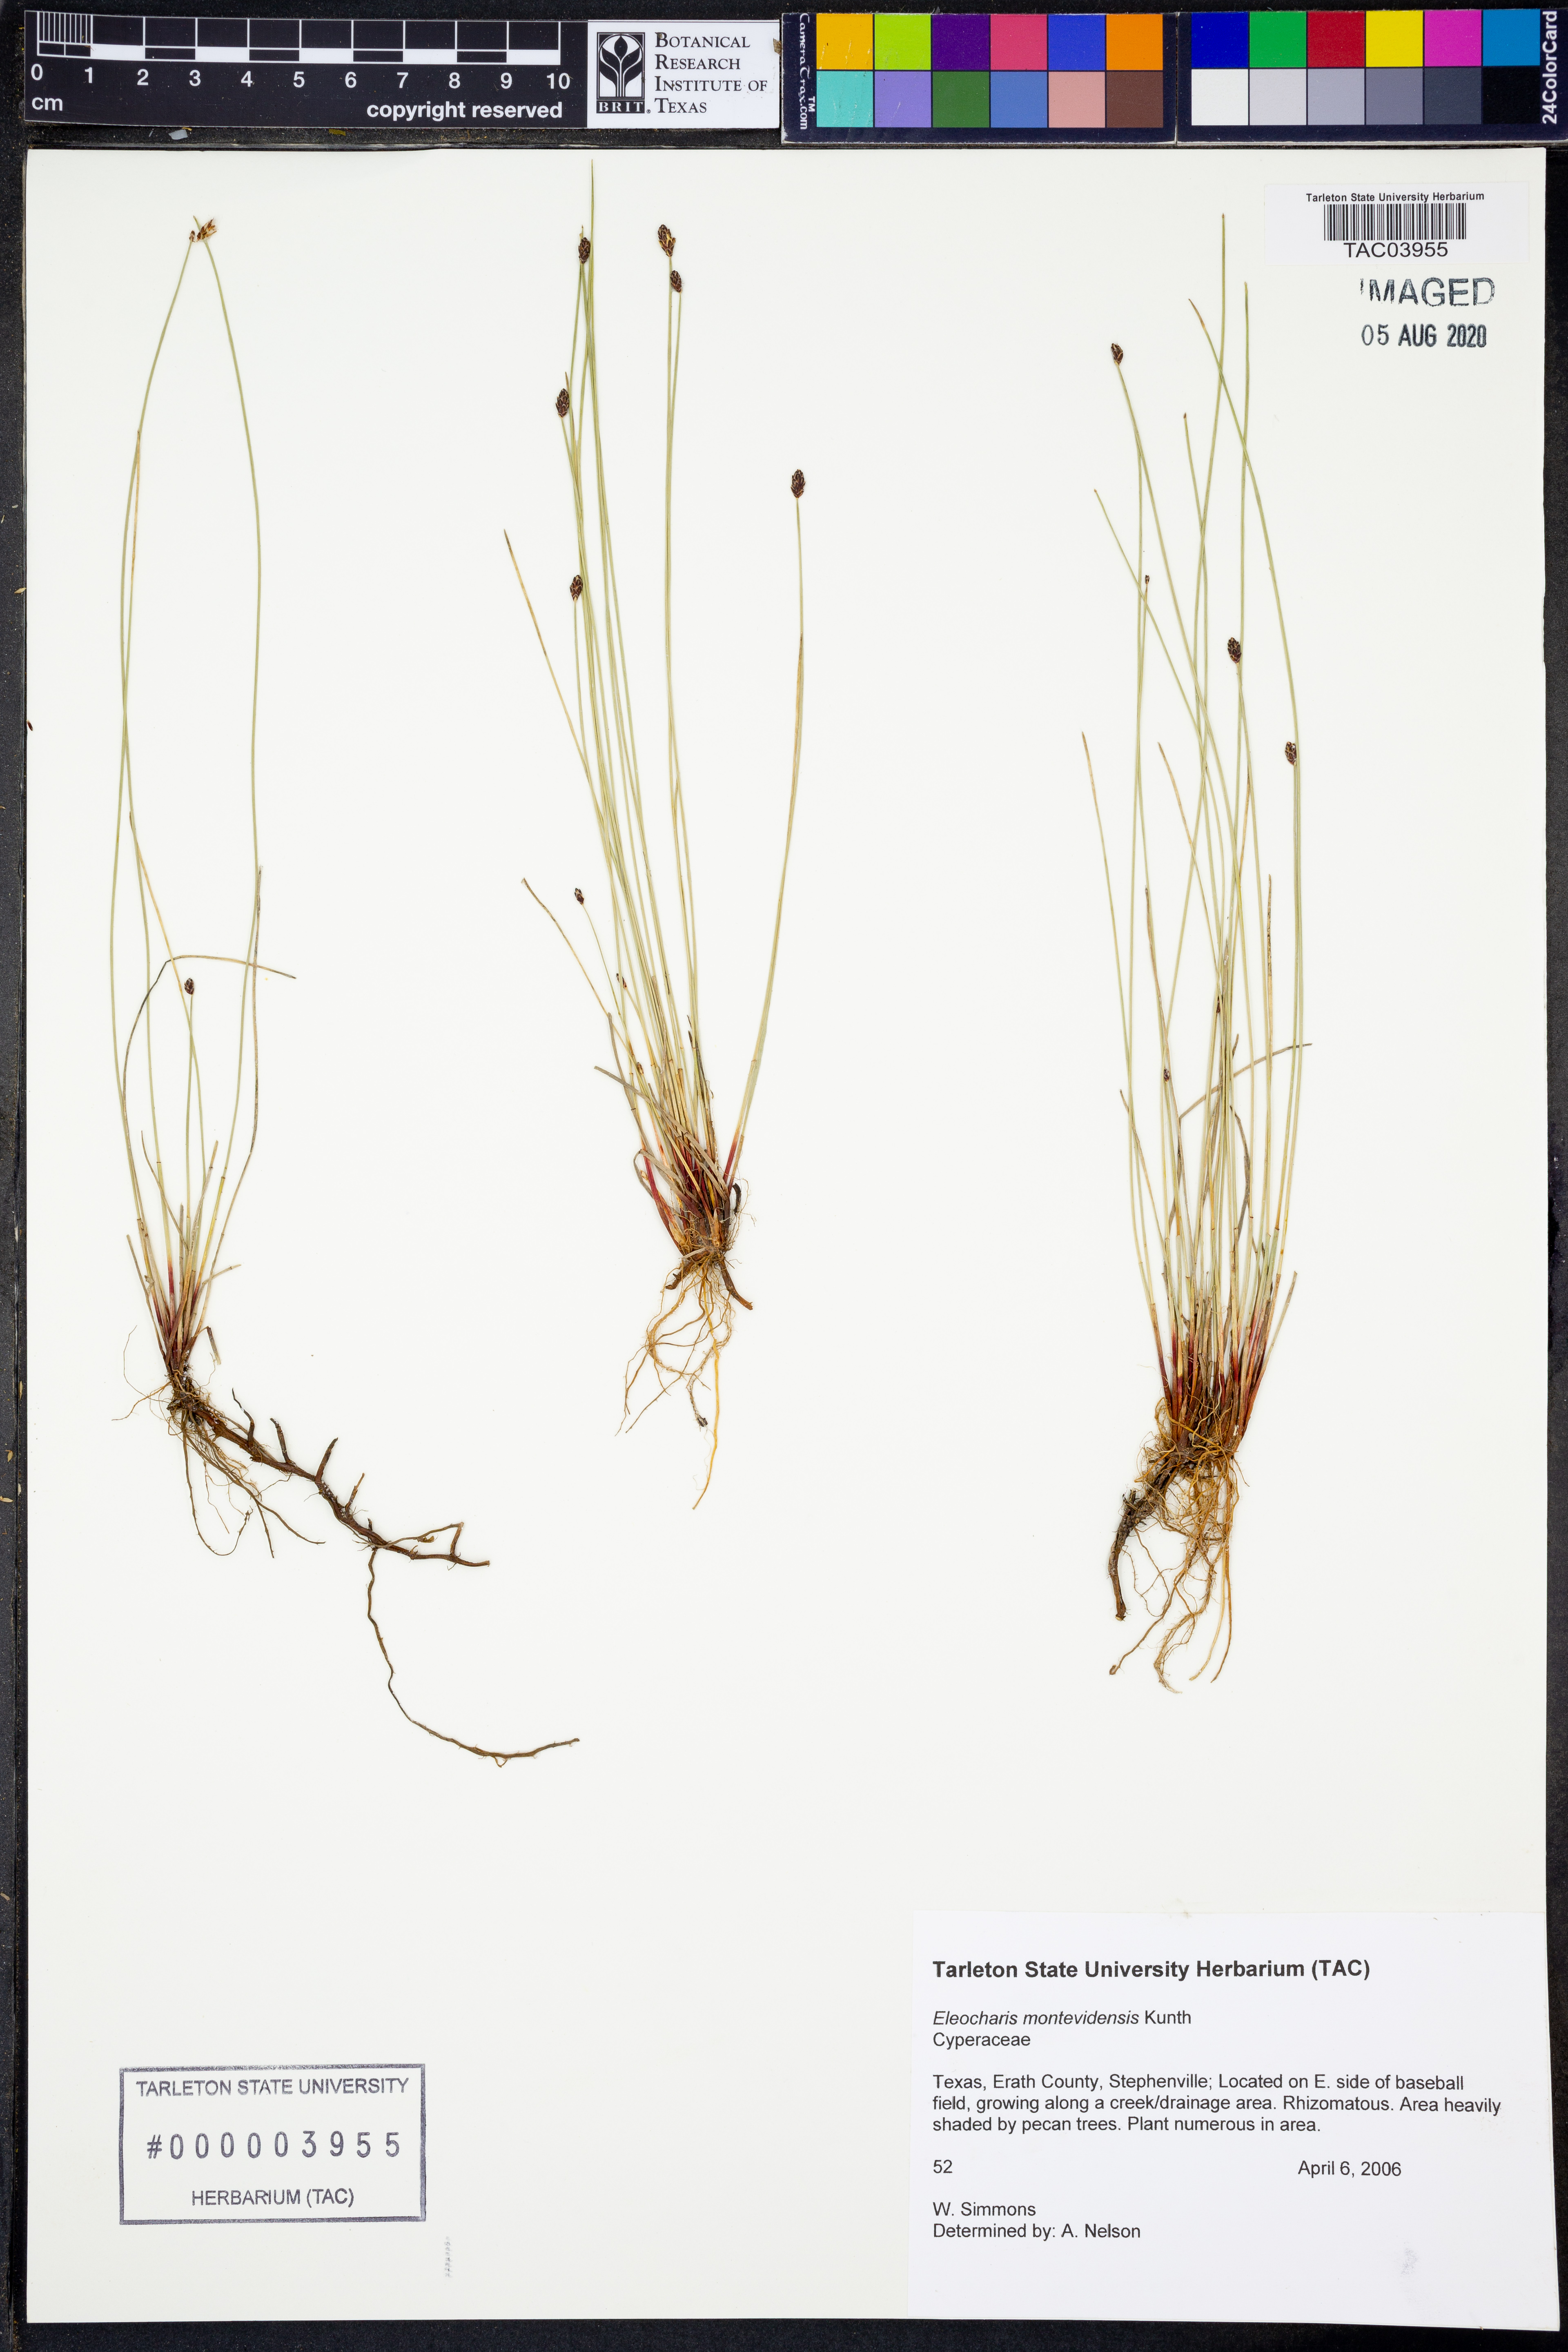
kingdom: Plantae
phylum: Tracheophyta
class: Liliopsida
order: Poales
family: Cyperaceae
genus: Eleocharis
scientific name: Eleocharis montevidensis
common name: Sand spike-rush
